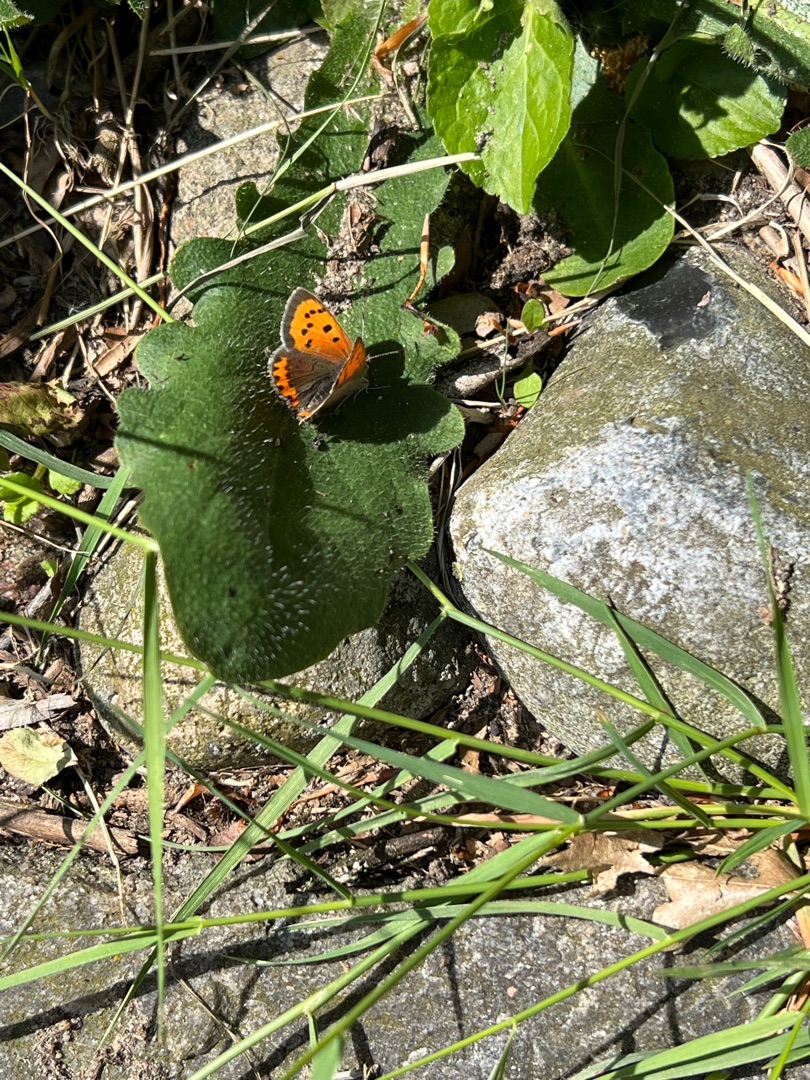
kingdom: Animalia
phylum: Arthropoda
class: Insecta
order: Lepidoptera
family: Lycaenidae
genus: Lycaena
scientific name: Lycaena phlaeas
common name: Lille ildfugl
